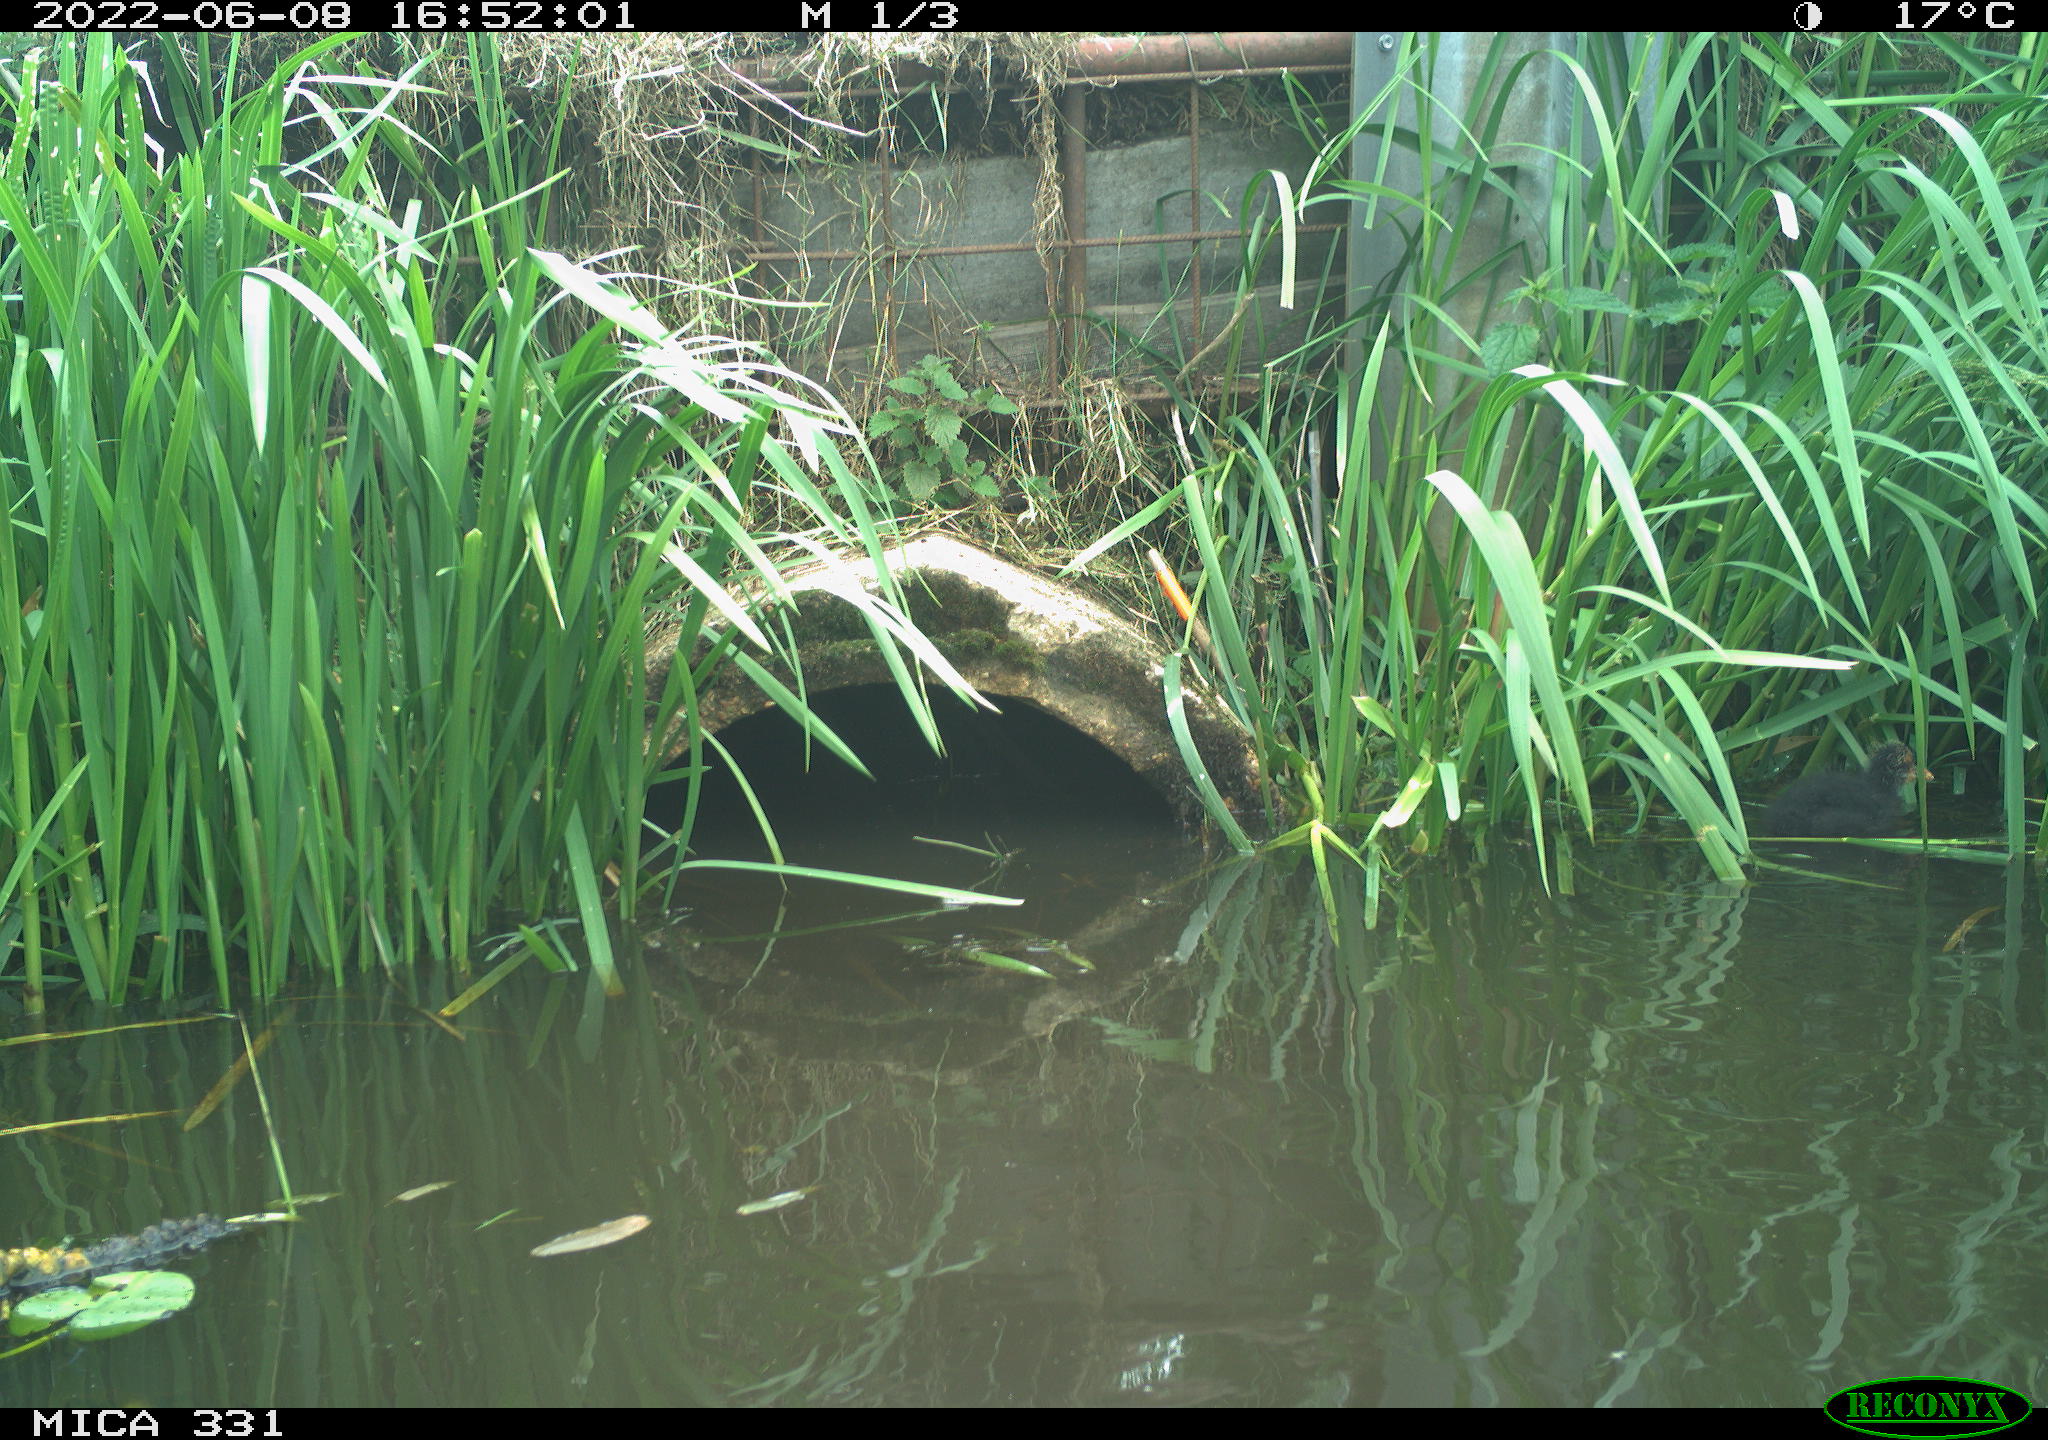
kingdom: Animalia
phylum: Chordata
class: Aves
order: Gruiformes
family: Rallidae
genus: Fulica
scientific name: Fulica atra
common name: Eurasian coot
